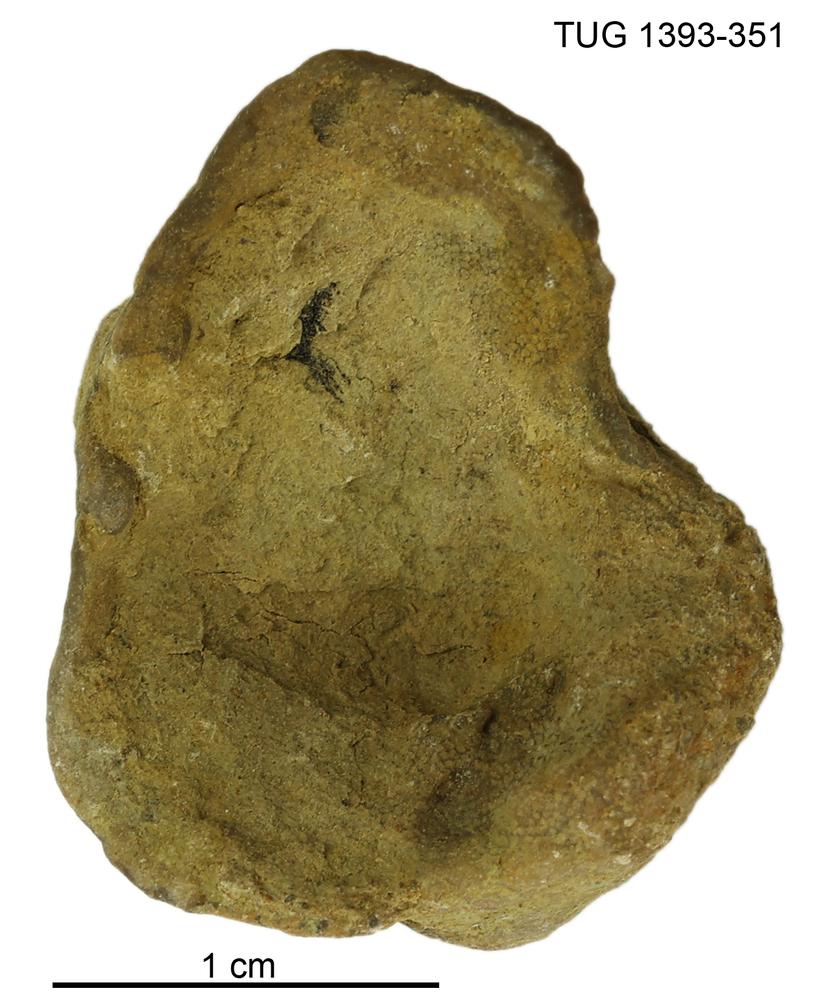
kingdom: Animalia
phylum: Bryozoa
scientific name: Bryozoa
